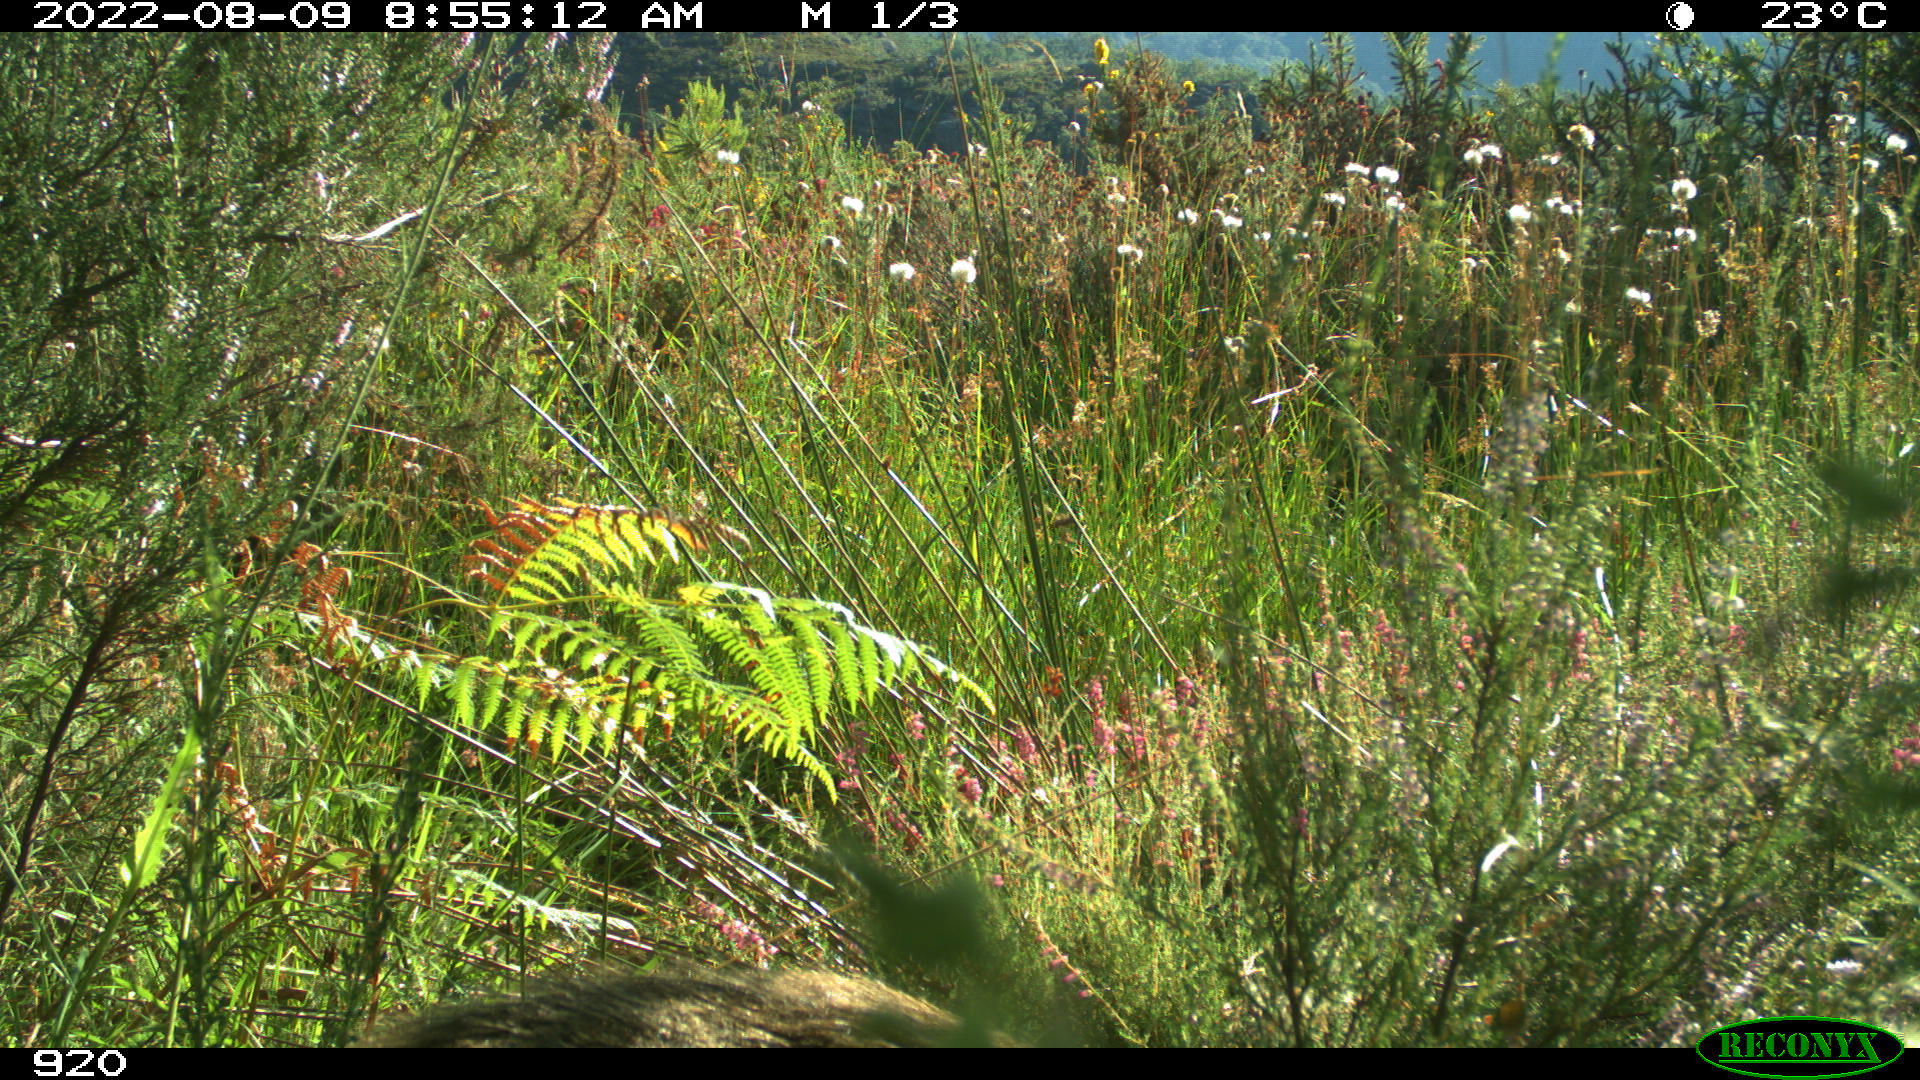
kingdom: Animalia
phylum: Chordata
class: Mammalia
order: Artiodactyla
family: Suidae
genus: Sus
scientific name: Sus scrofa
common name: Wild boar
